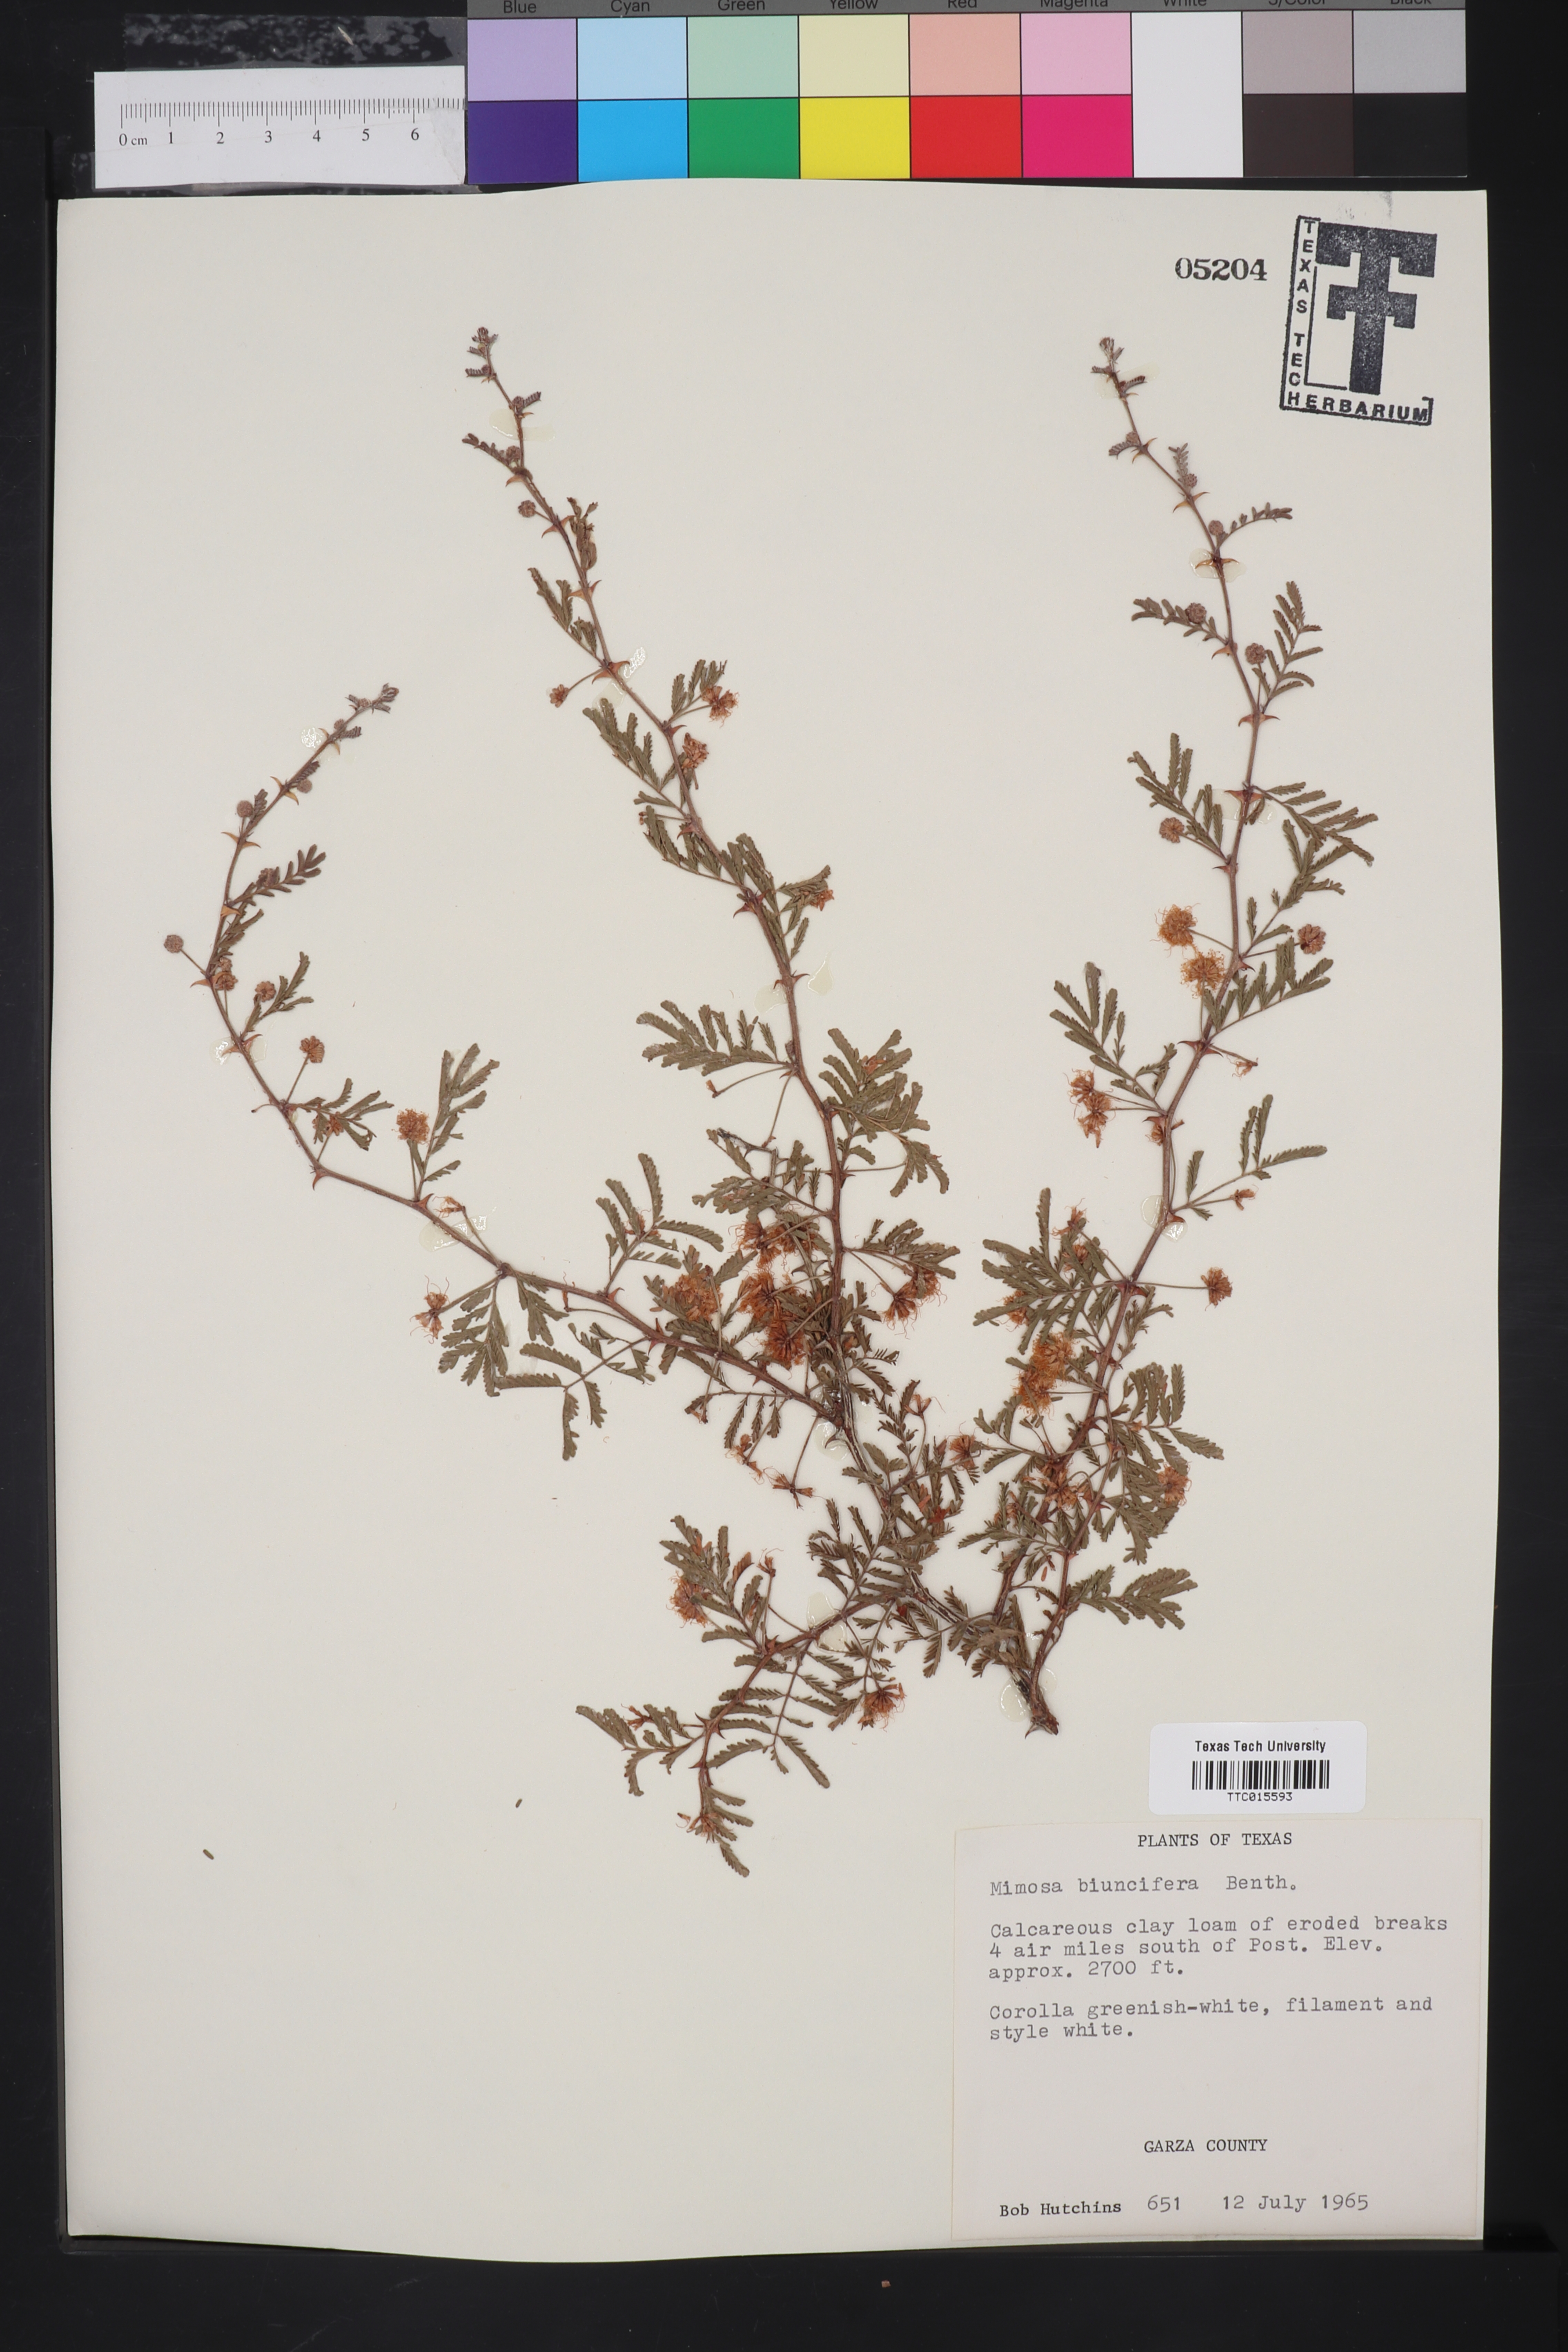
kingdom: Plantae
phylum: Tracheophyta
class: Magnoliopsida
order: Fabales
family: Fabaceae
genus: Mimosa
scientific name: Mimosa biuncifera
